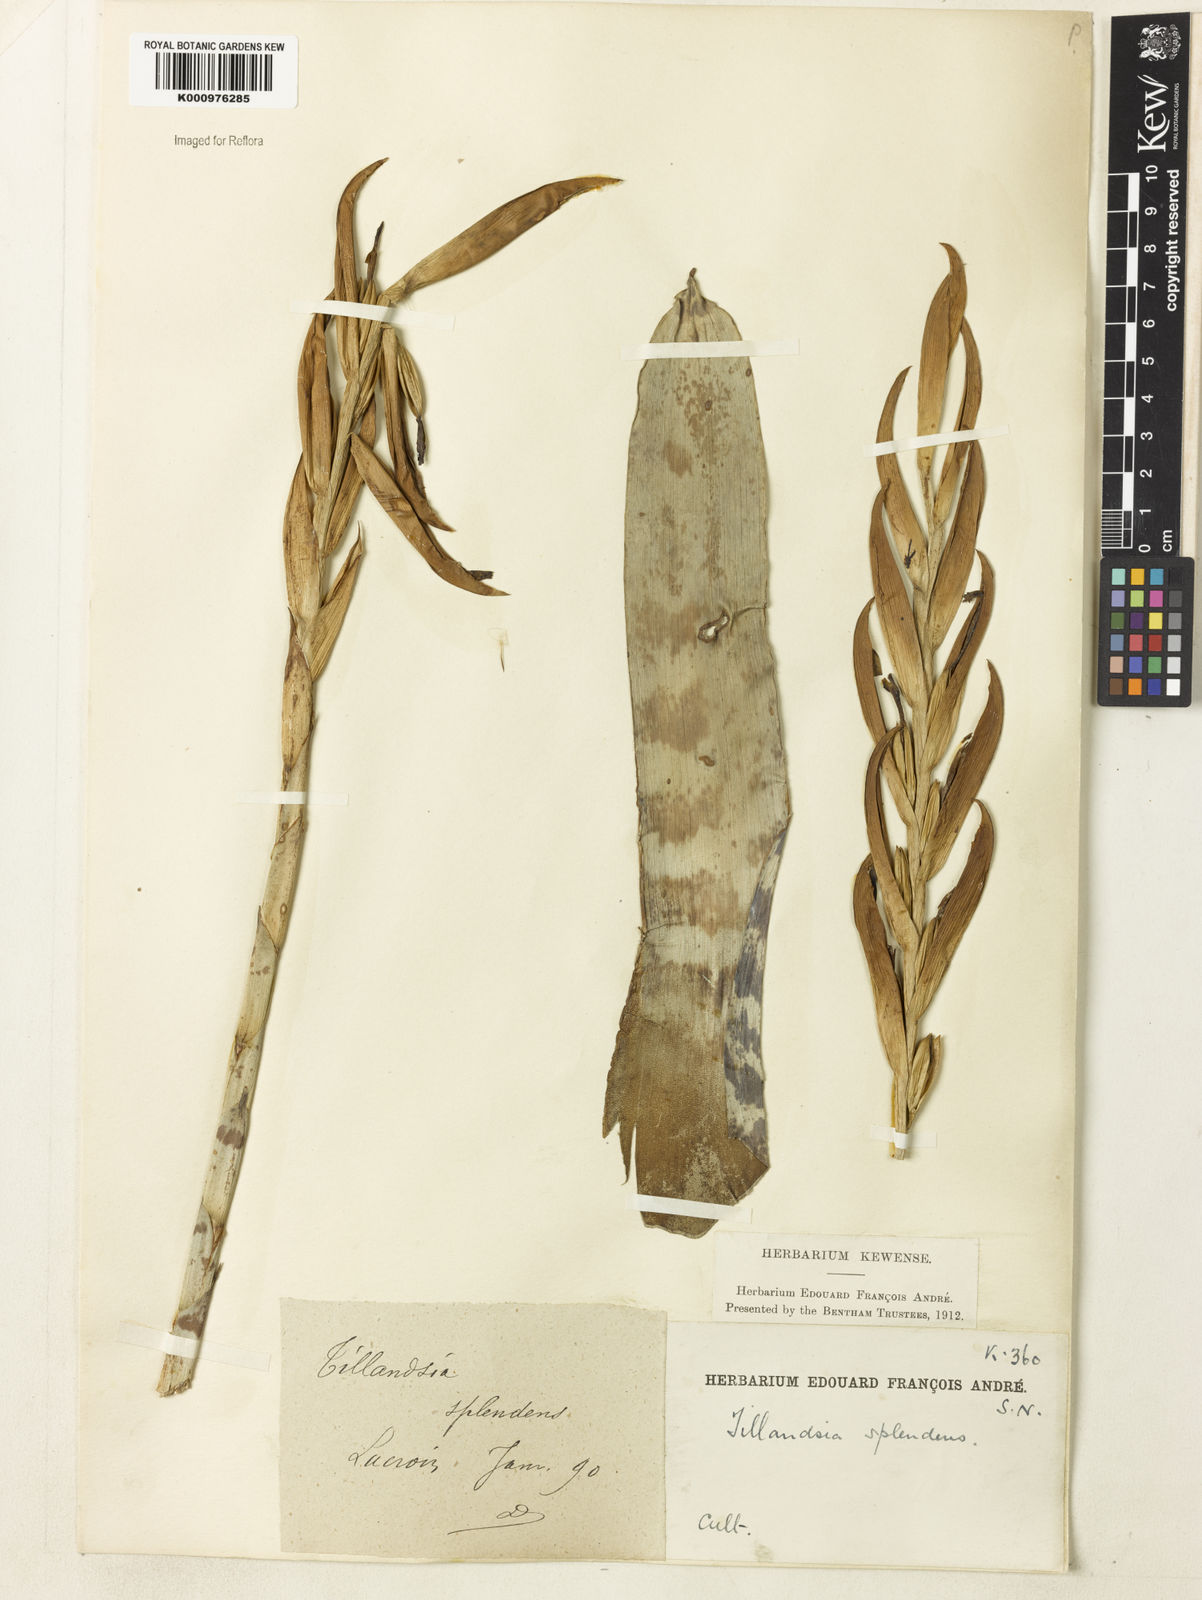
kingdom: Plantae
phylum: Tracheophyta
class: Liliopsida
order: Poales
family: Bromeliaceae
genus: Lutheria
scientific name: Lutheria splendens
